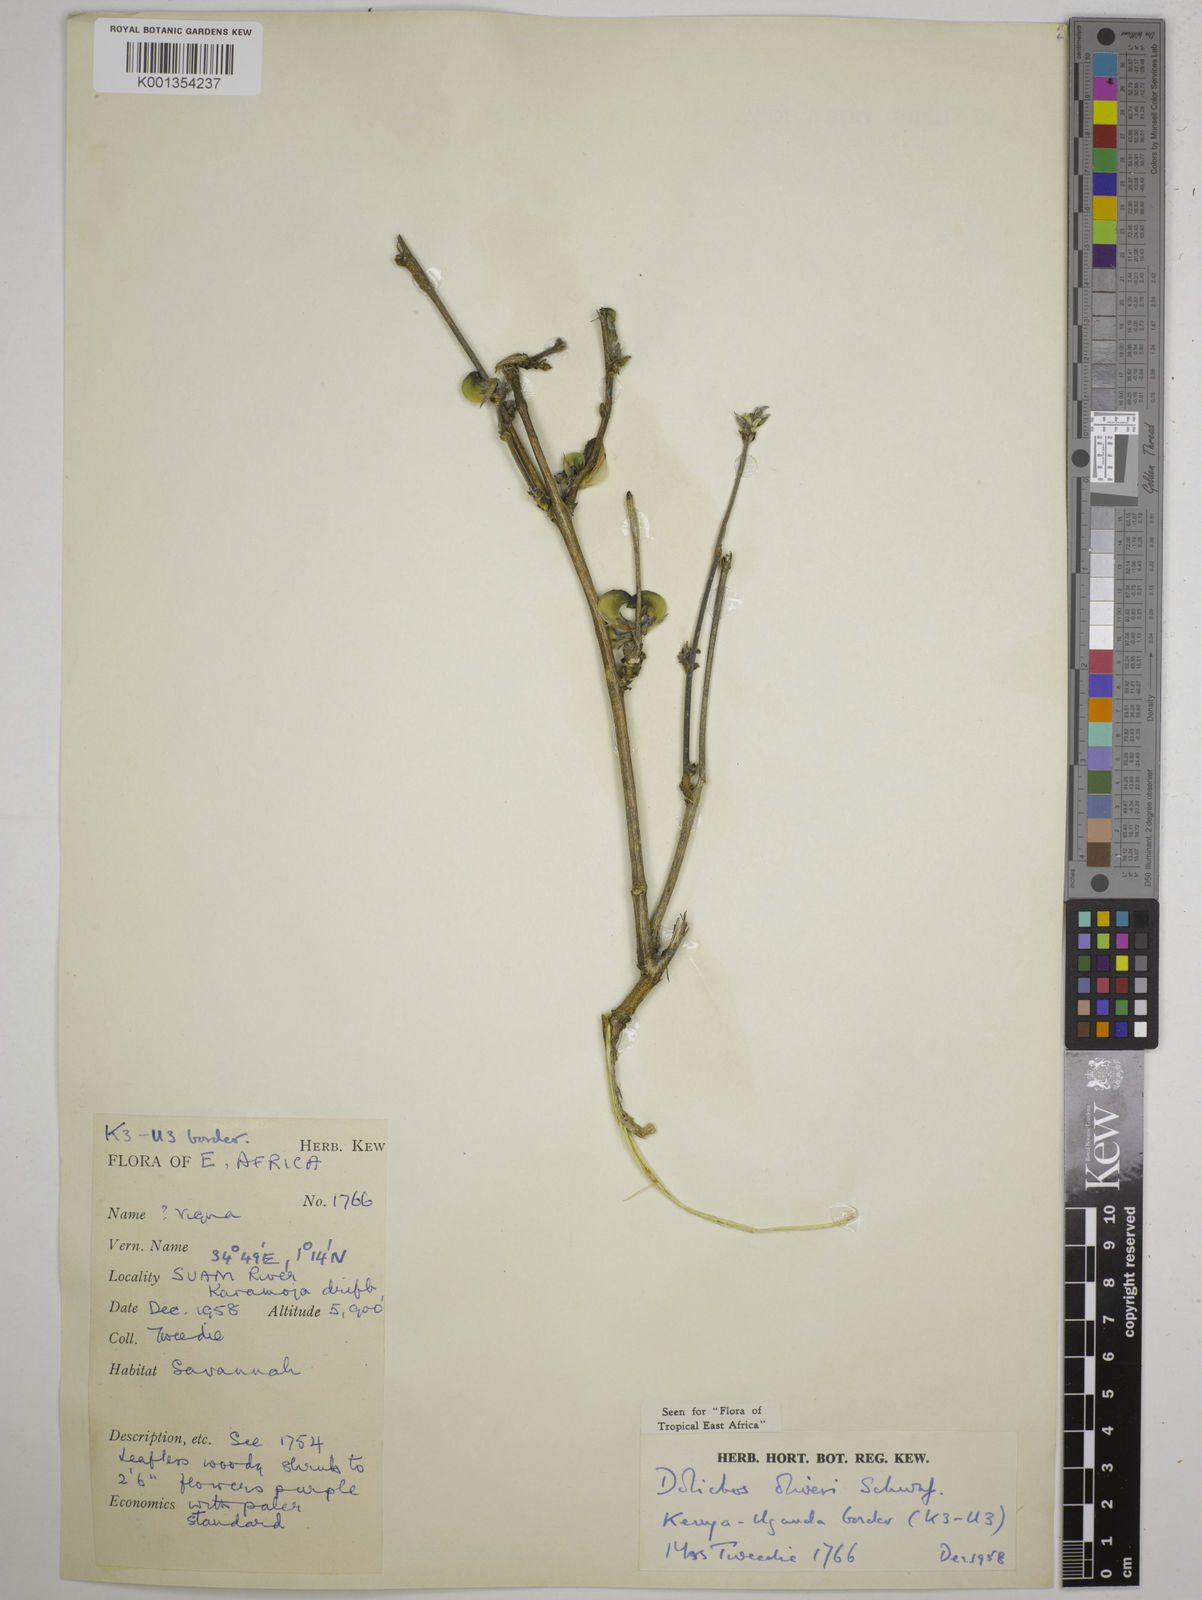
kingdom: Plantae
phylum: Tracheophyta
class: Magnoliopsida
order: Fabales
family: Fabaceae
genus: Dolichos
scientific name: Dolichos oliveri
